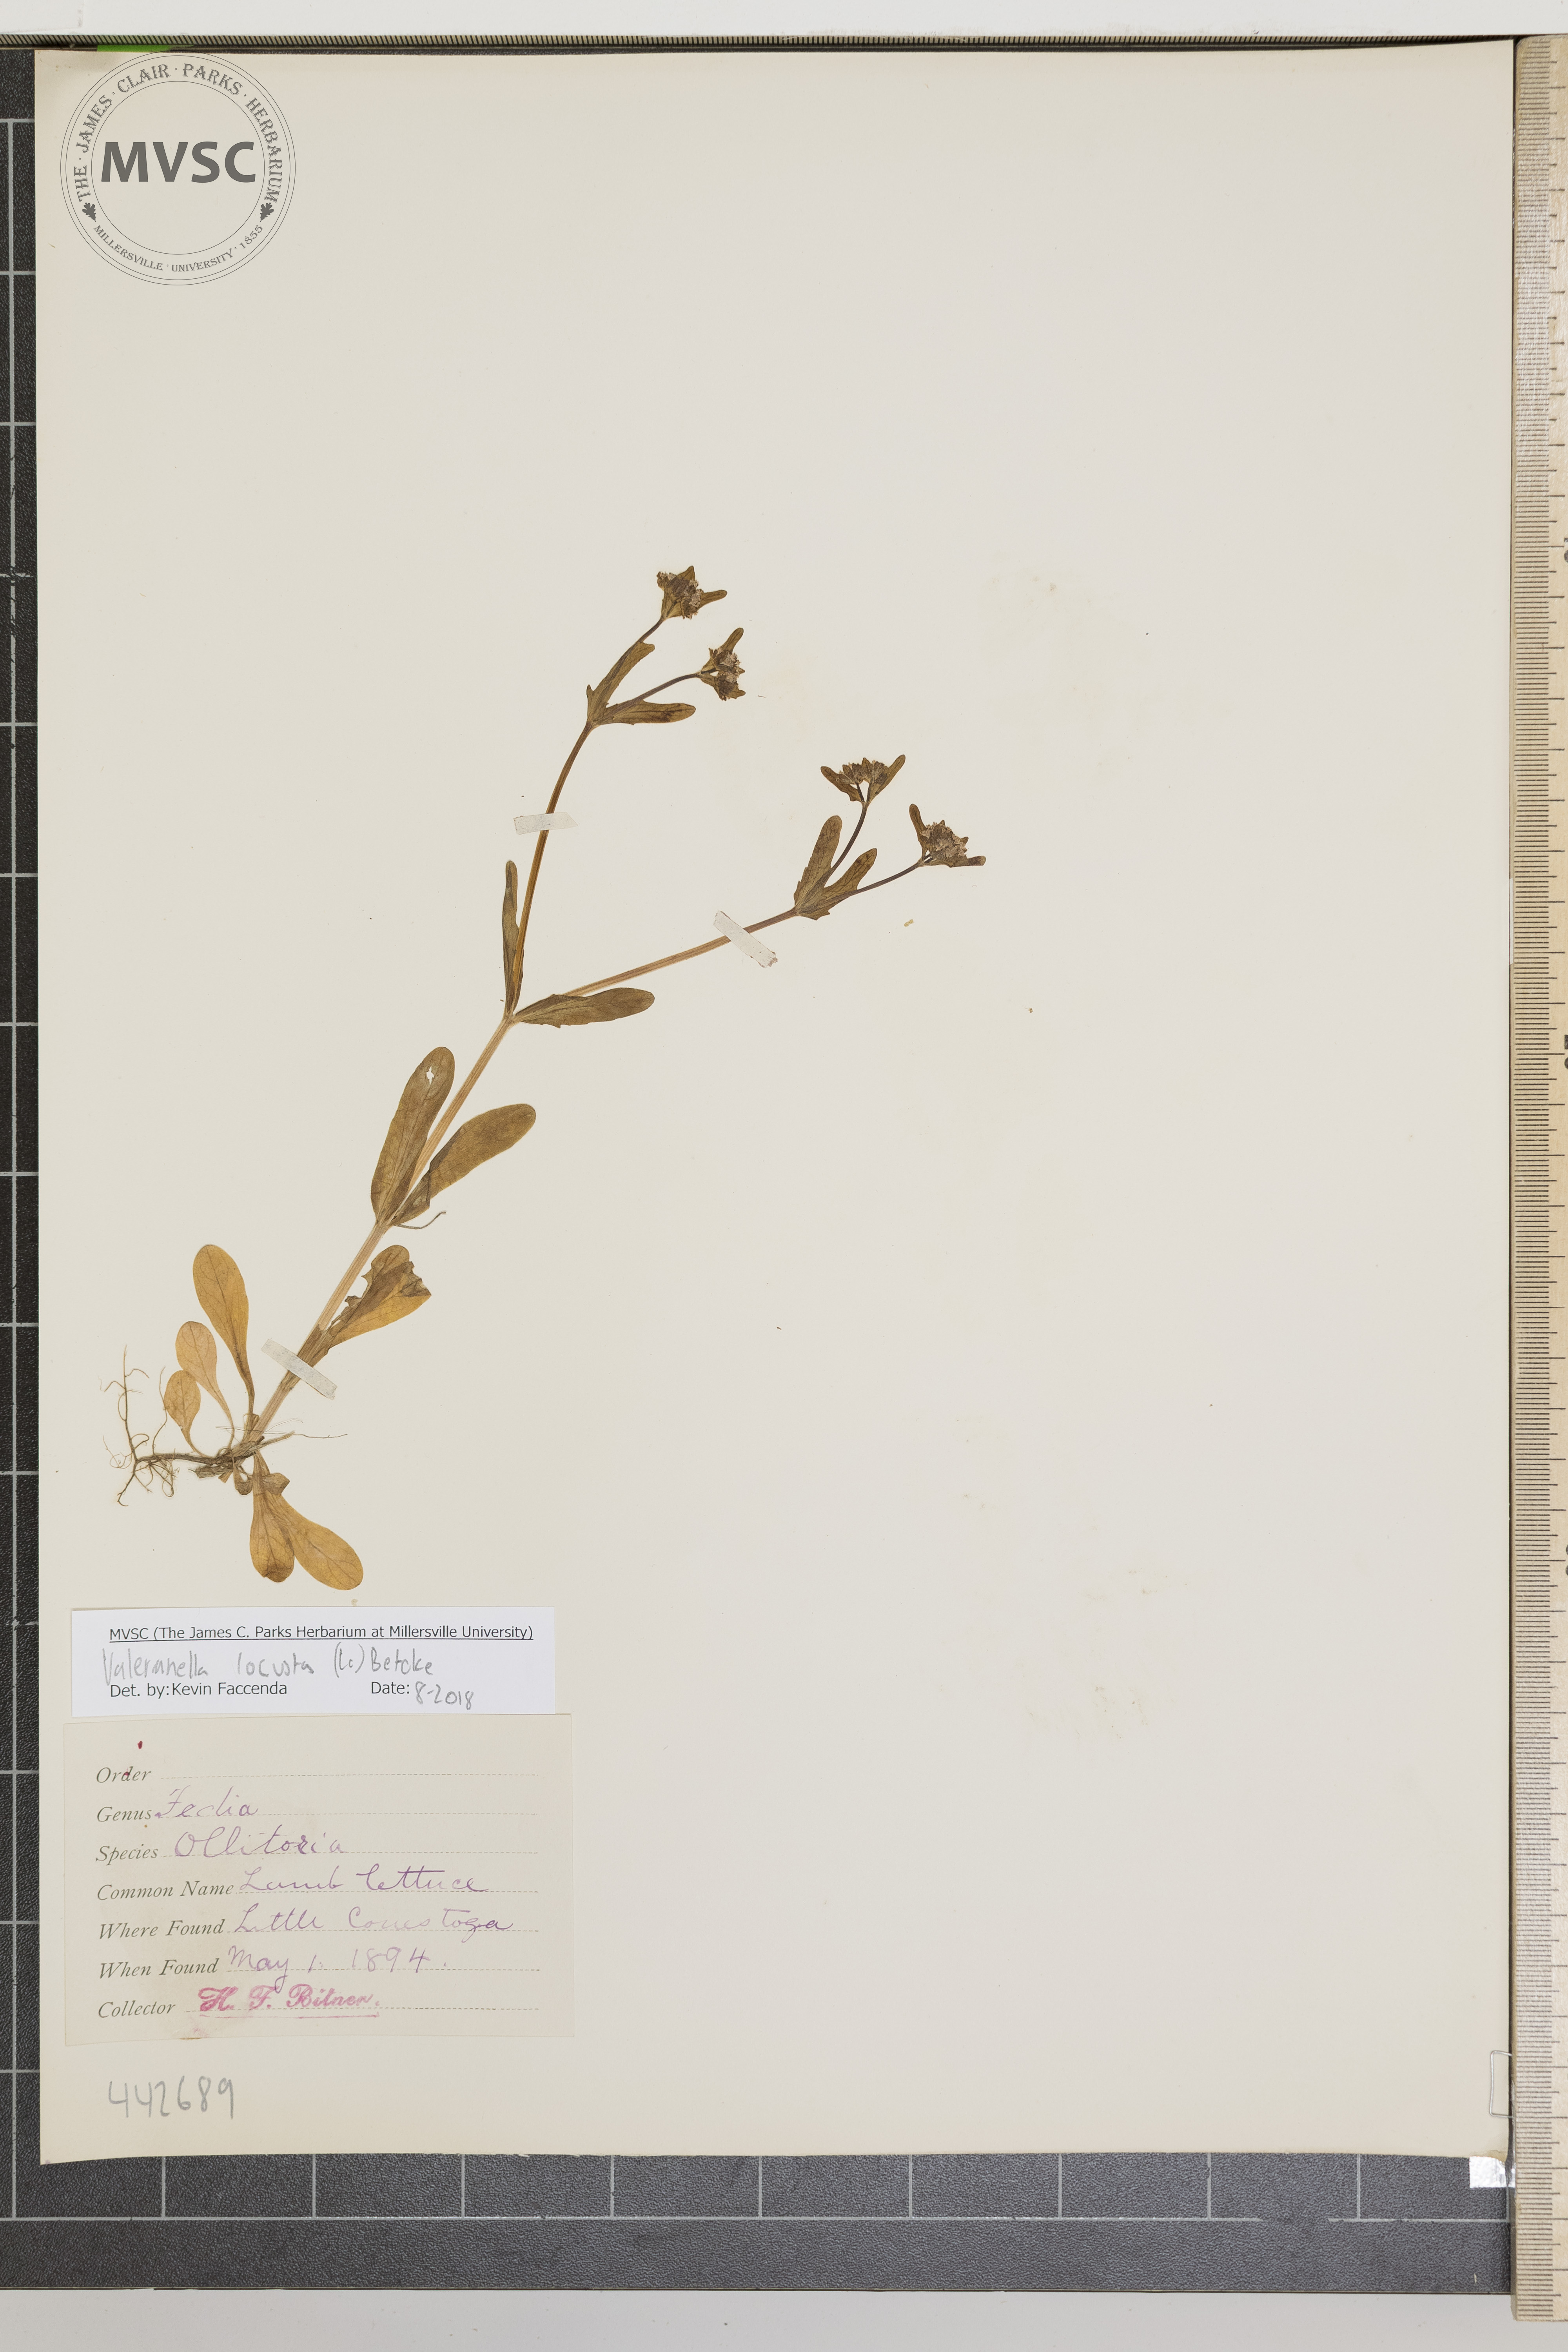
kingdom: Plantae
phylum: Tracheophyta
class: Magnoliopsida
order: Dipsacales
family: Caprifoliaceae
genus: Valerianella
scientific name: Valerianella locusta
